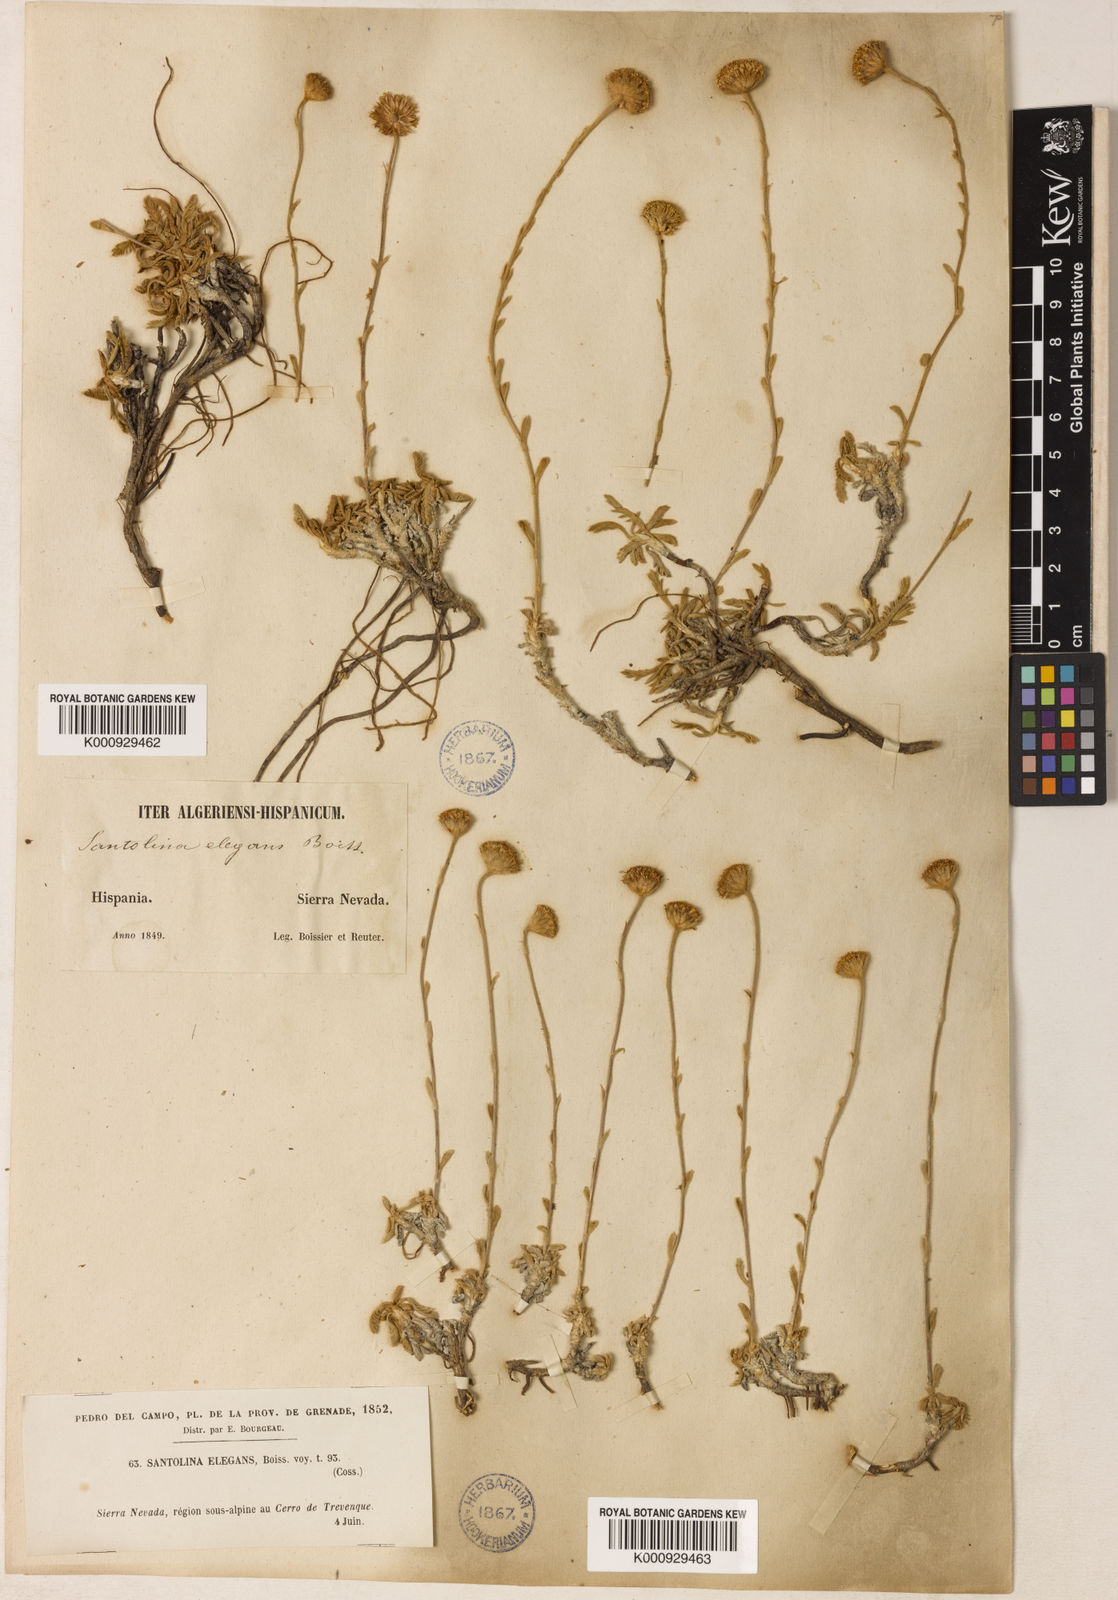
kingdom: Plantae
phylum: Tracheophyta
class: Magnoliopsida
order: Asterales
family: Asteraceae
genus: Santolina
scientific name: Santolina elegans
